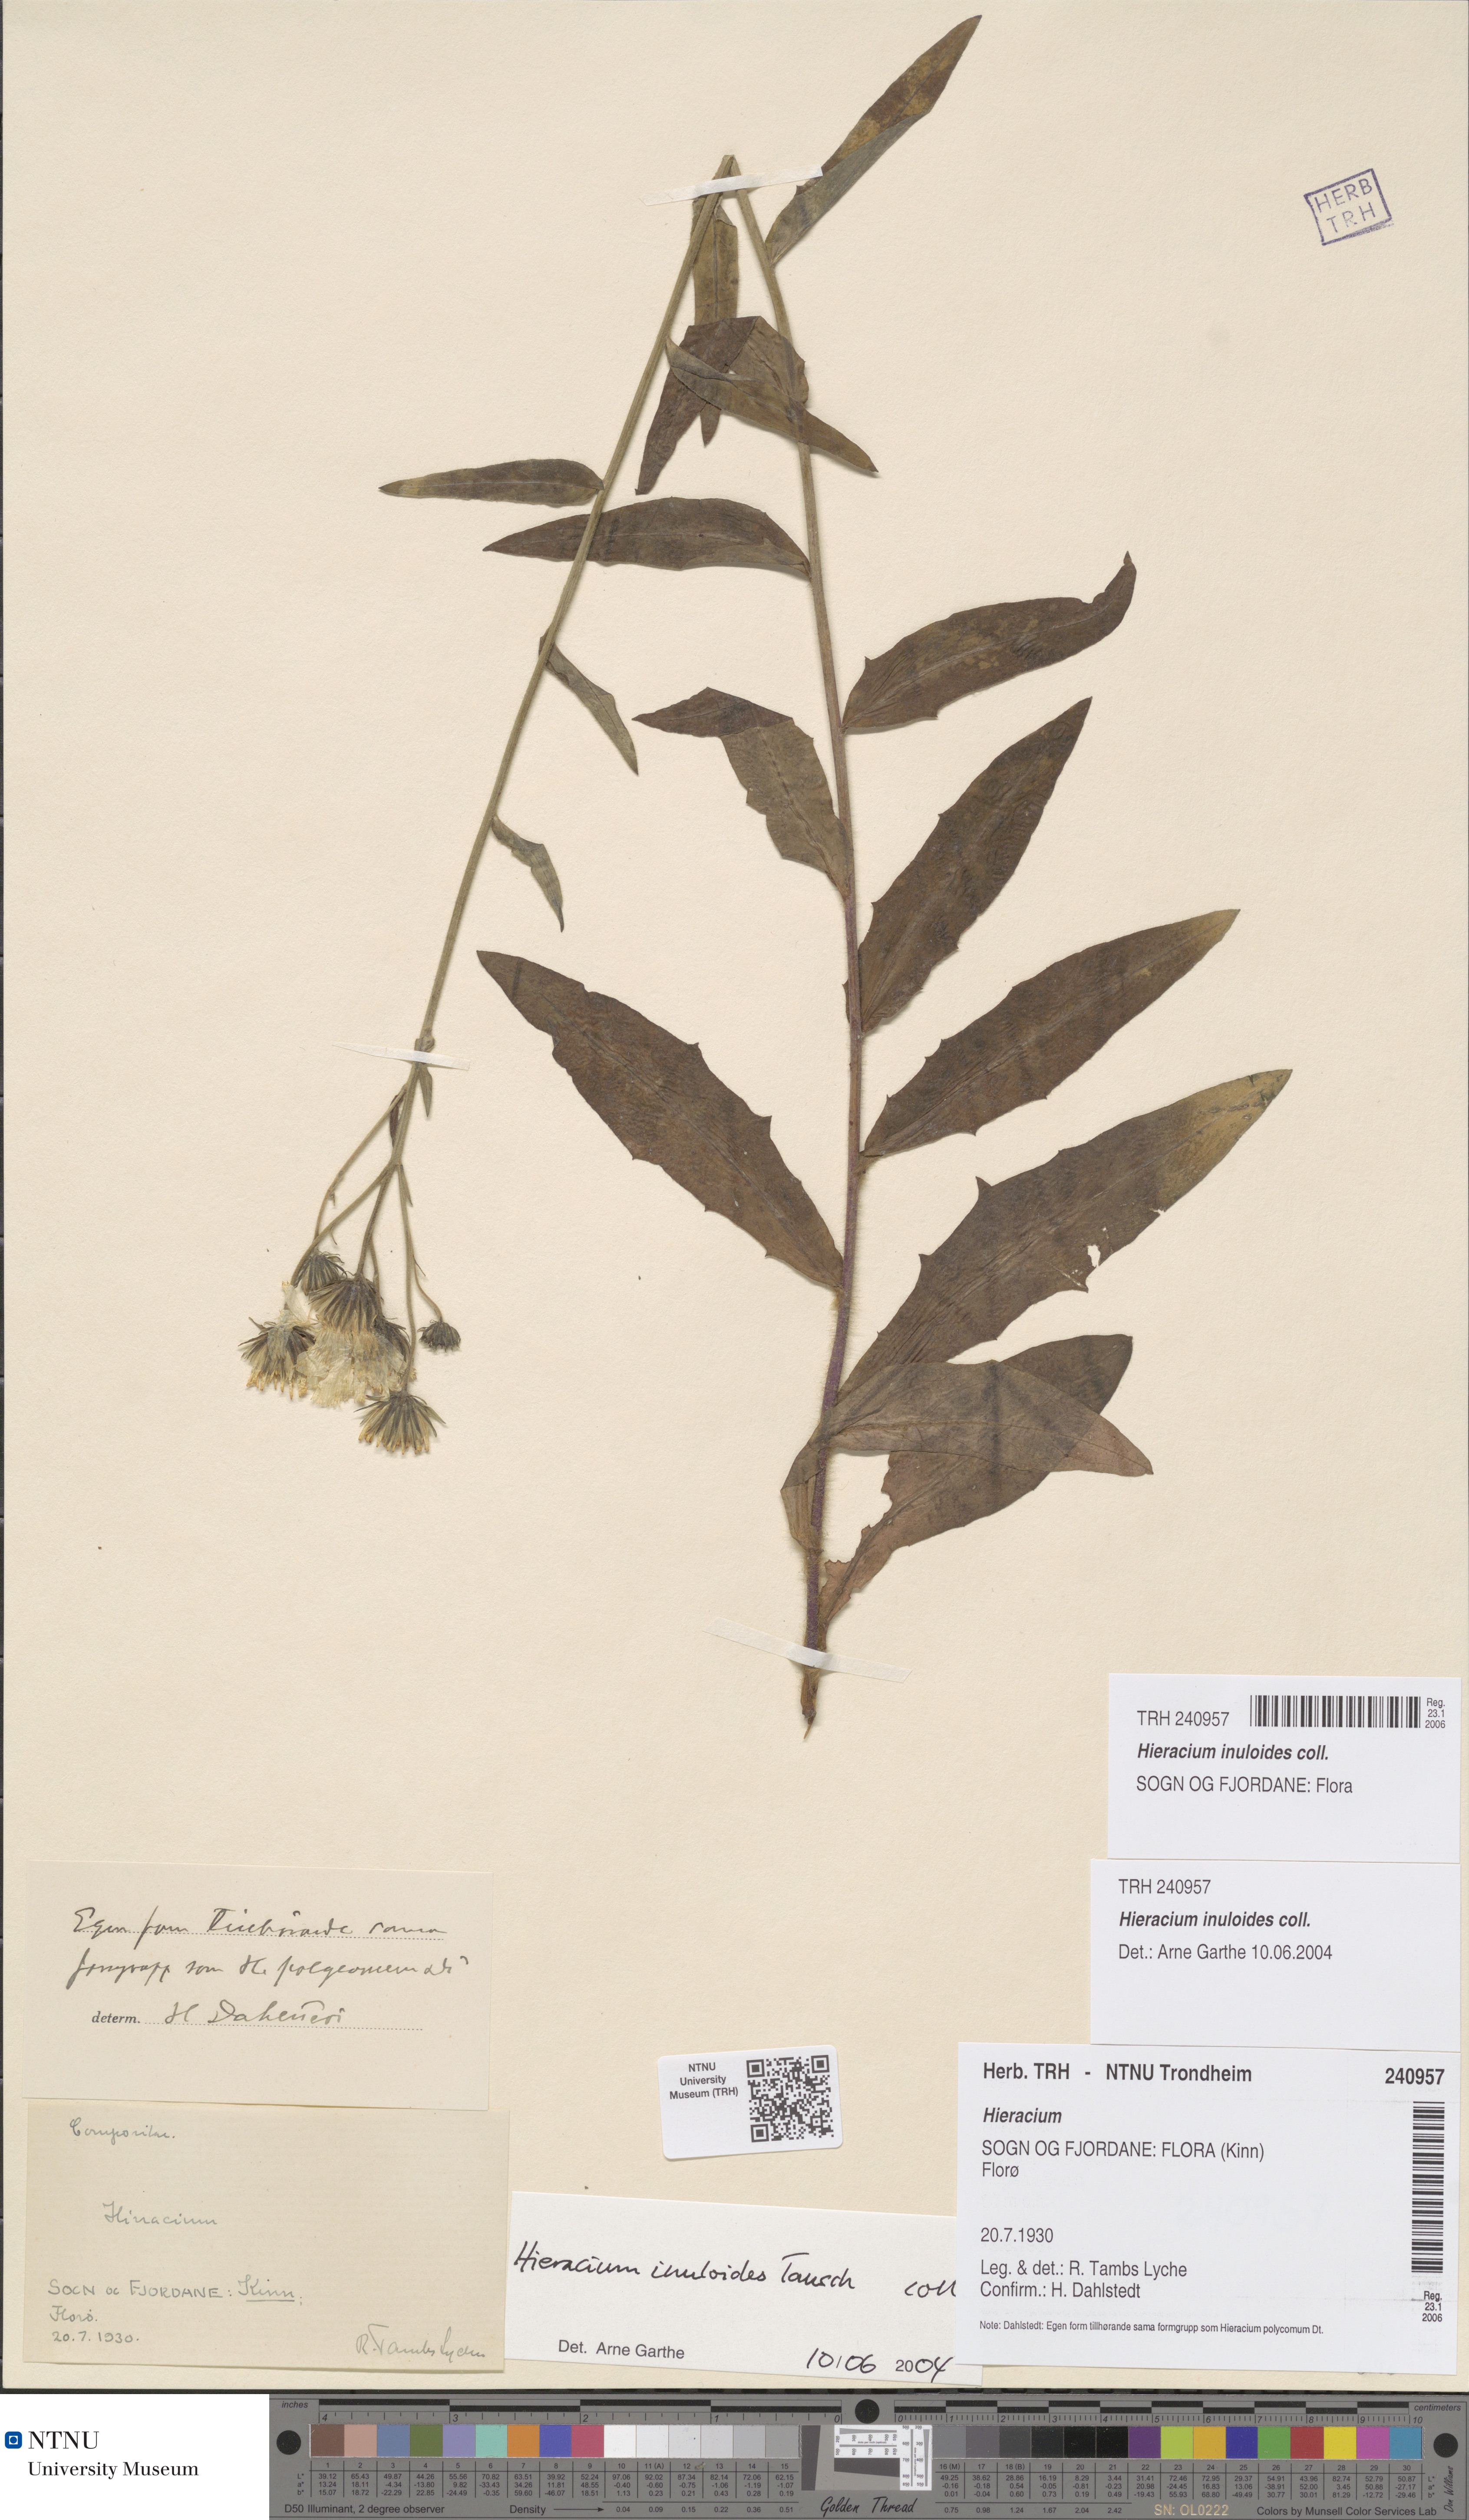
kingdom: Plantae
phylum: Tracheophyta
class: Magnoliopsida
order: Asterales
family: Asteraceae
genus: Hieracium
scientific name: Hieracium inuloides
